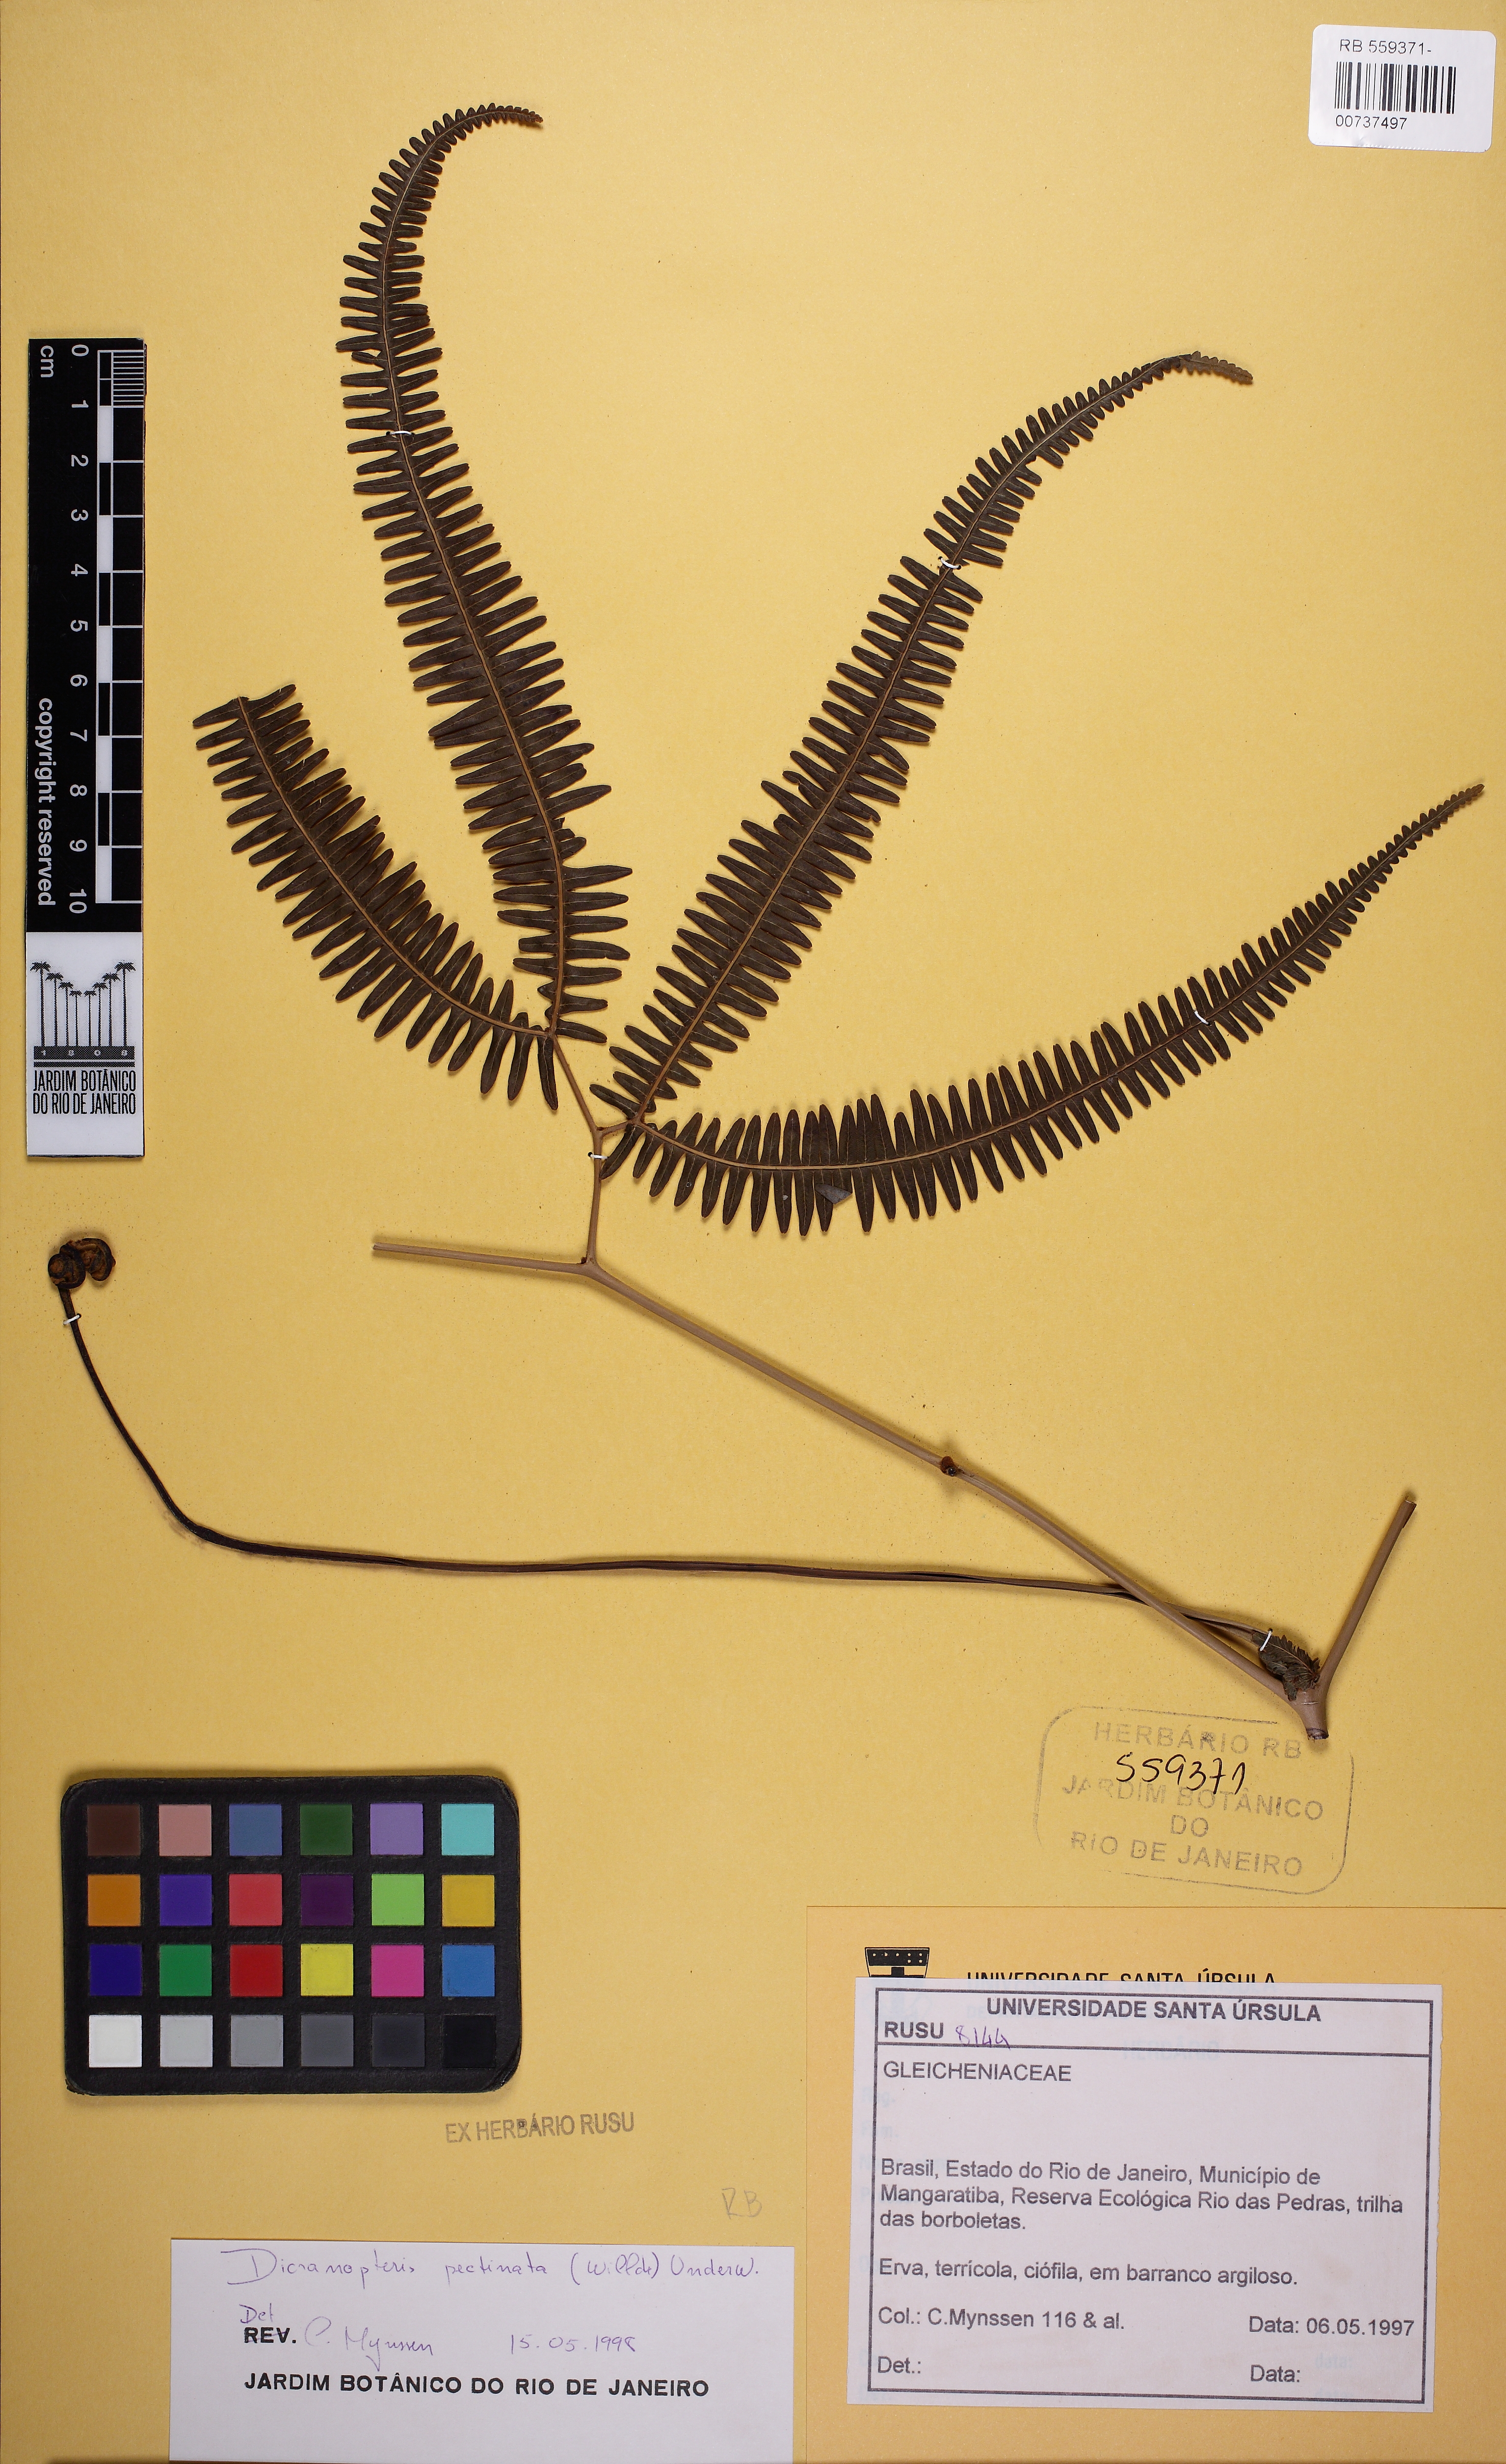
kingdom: Plantae
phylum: Tracheophyta
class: Polypodiopsida
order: Gleicheniales
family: Gleicheniaceae
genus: Gleichenella
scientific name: Gleichenella pectinata
